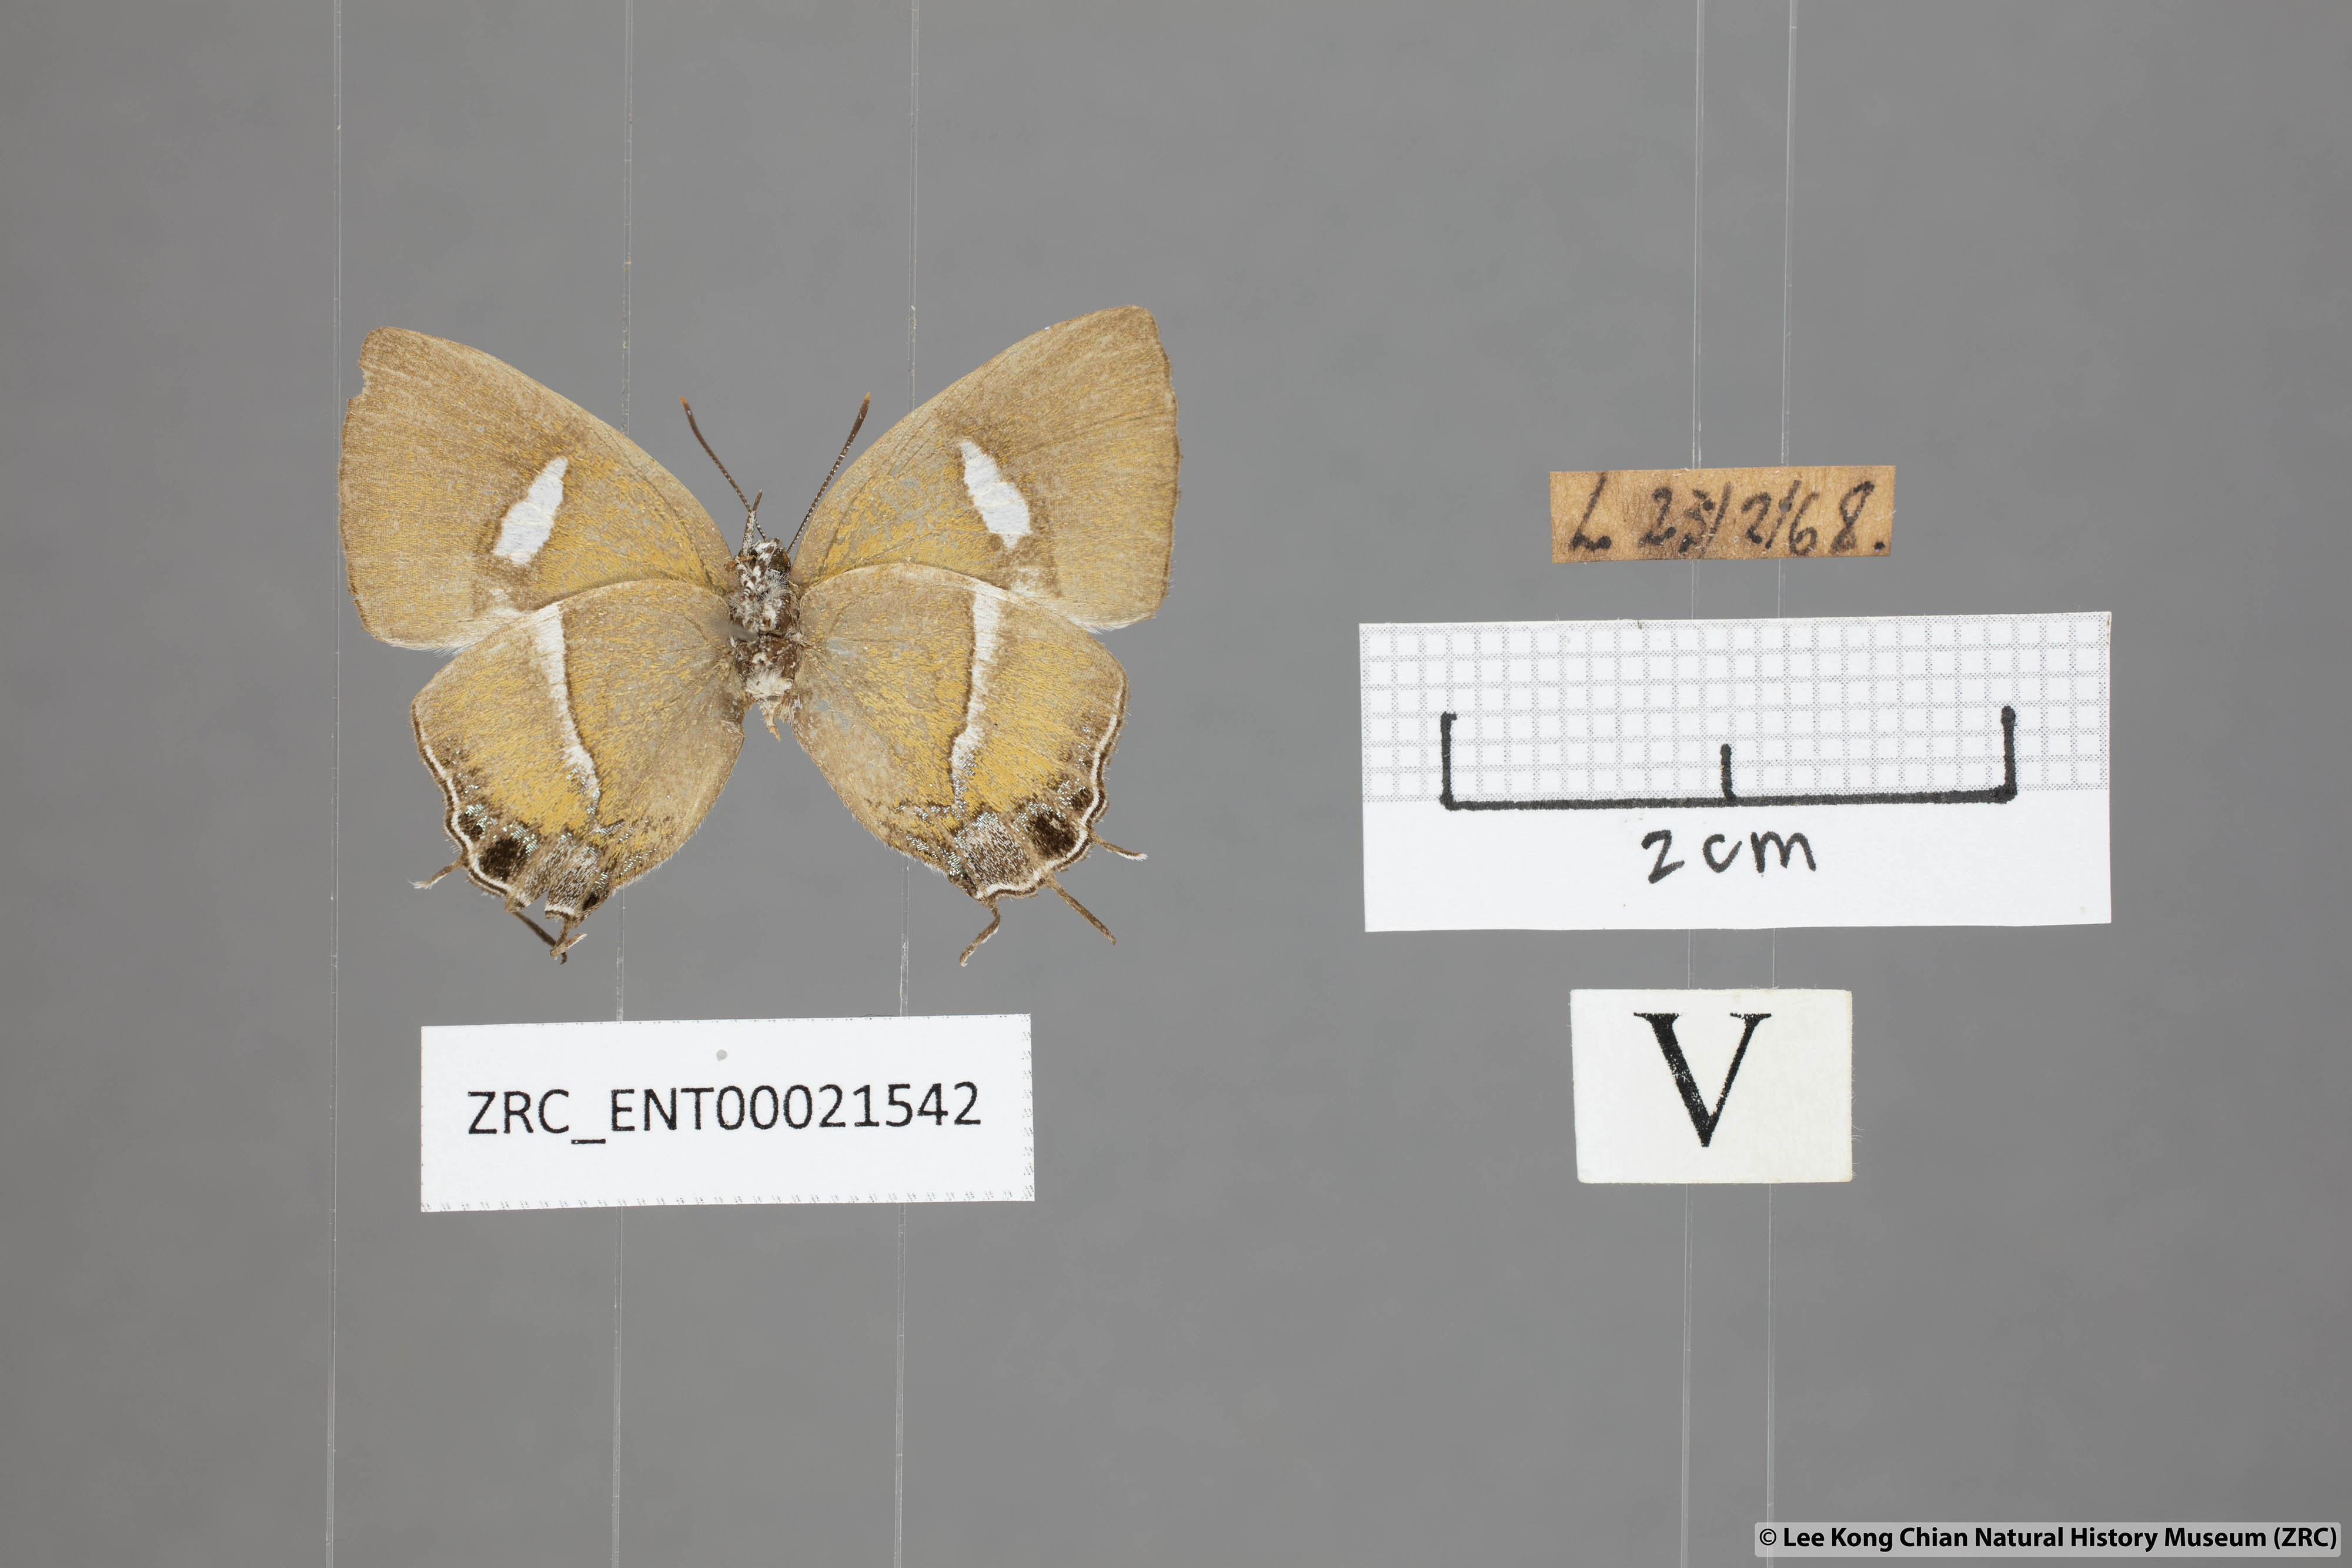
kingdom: Animalia
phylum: Arthropoda
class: Insecta
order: Lepidoptera
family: Lycaenidae
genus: Horaga
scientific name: Horaga syrinx
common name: Ambon onyx
